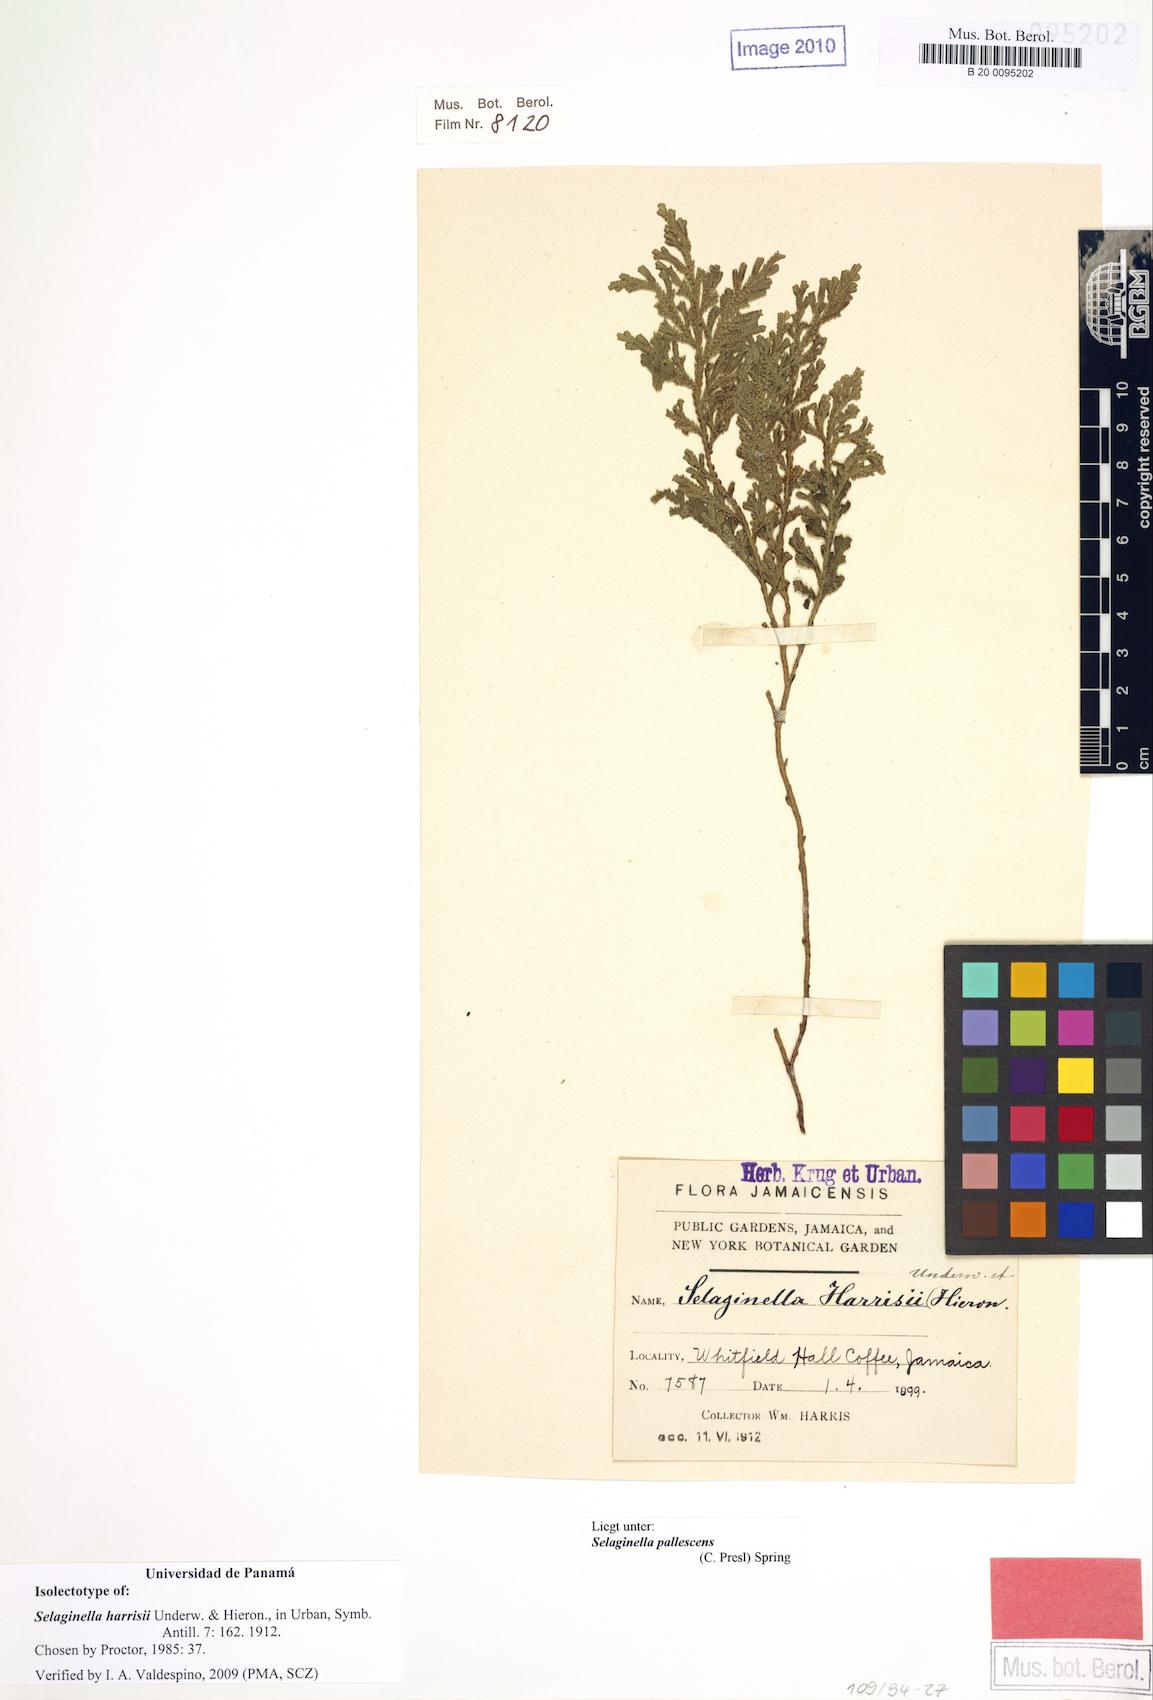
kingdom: Plantae
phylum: Tracheophyta
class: Lycopodiopsida
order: Selaginellales
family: Selaginellaceae
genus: Selaginella
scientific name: Selaginella harrisii
